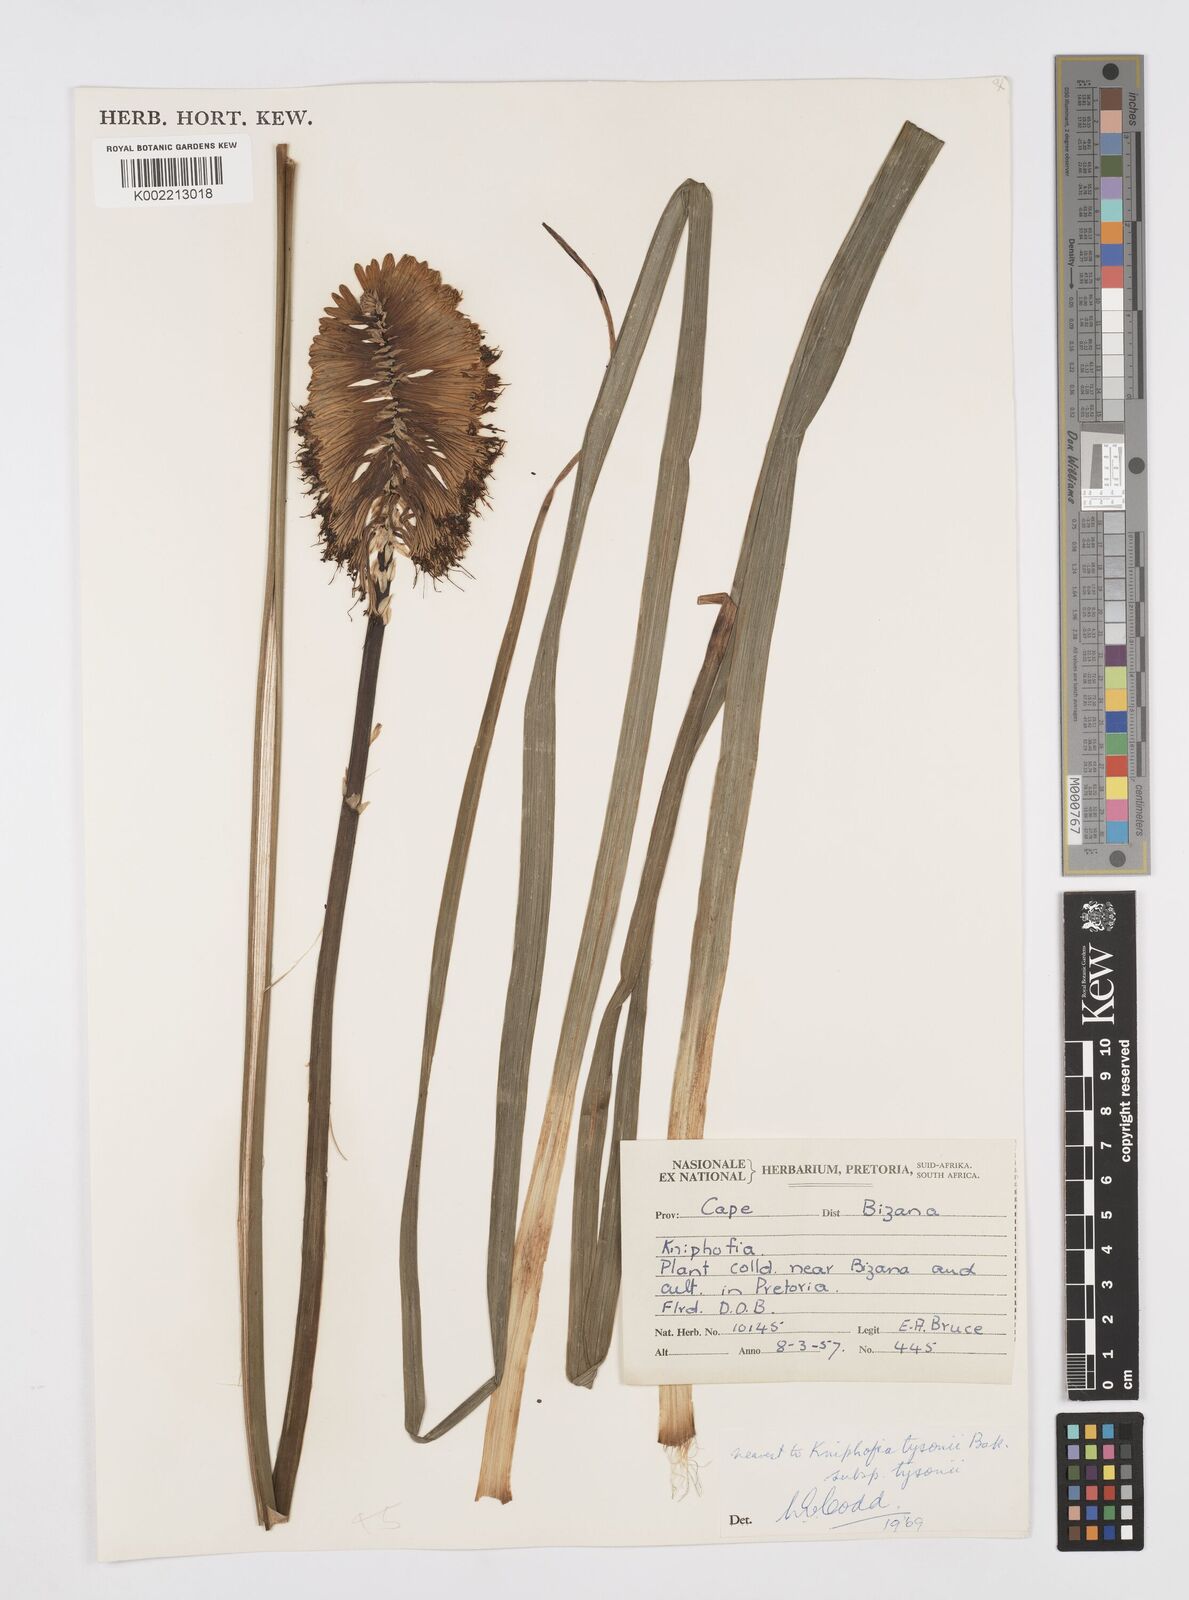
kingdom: Plantae
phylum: Tracheophyta
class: Liliopsida
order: Asparagales
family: Asphodelaceae
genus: Kniphofia
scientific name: Kniphofia tysonii
